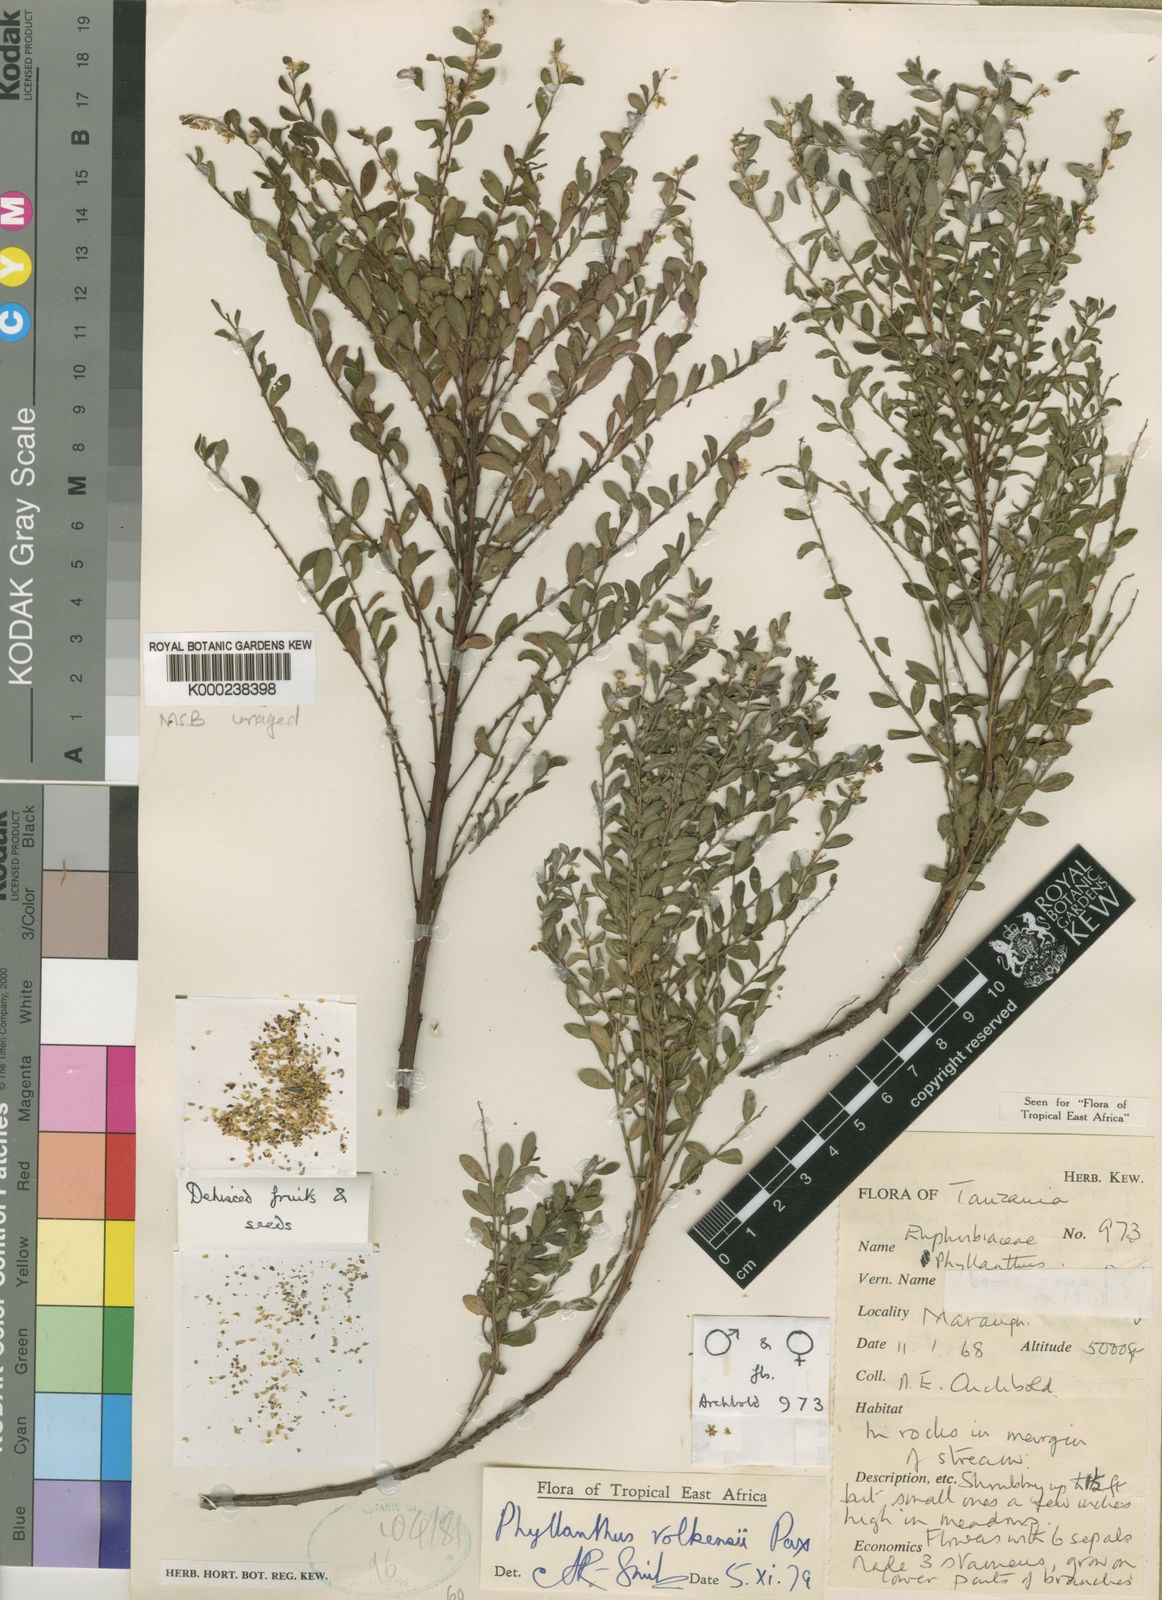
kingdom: Plantae
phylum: Tracheophyta
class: Magnoliopsida
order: Malpighiales
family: Phyllanthaceae
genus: Phyllanthus
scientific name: Phyllanthus volkensii
